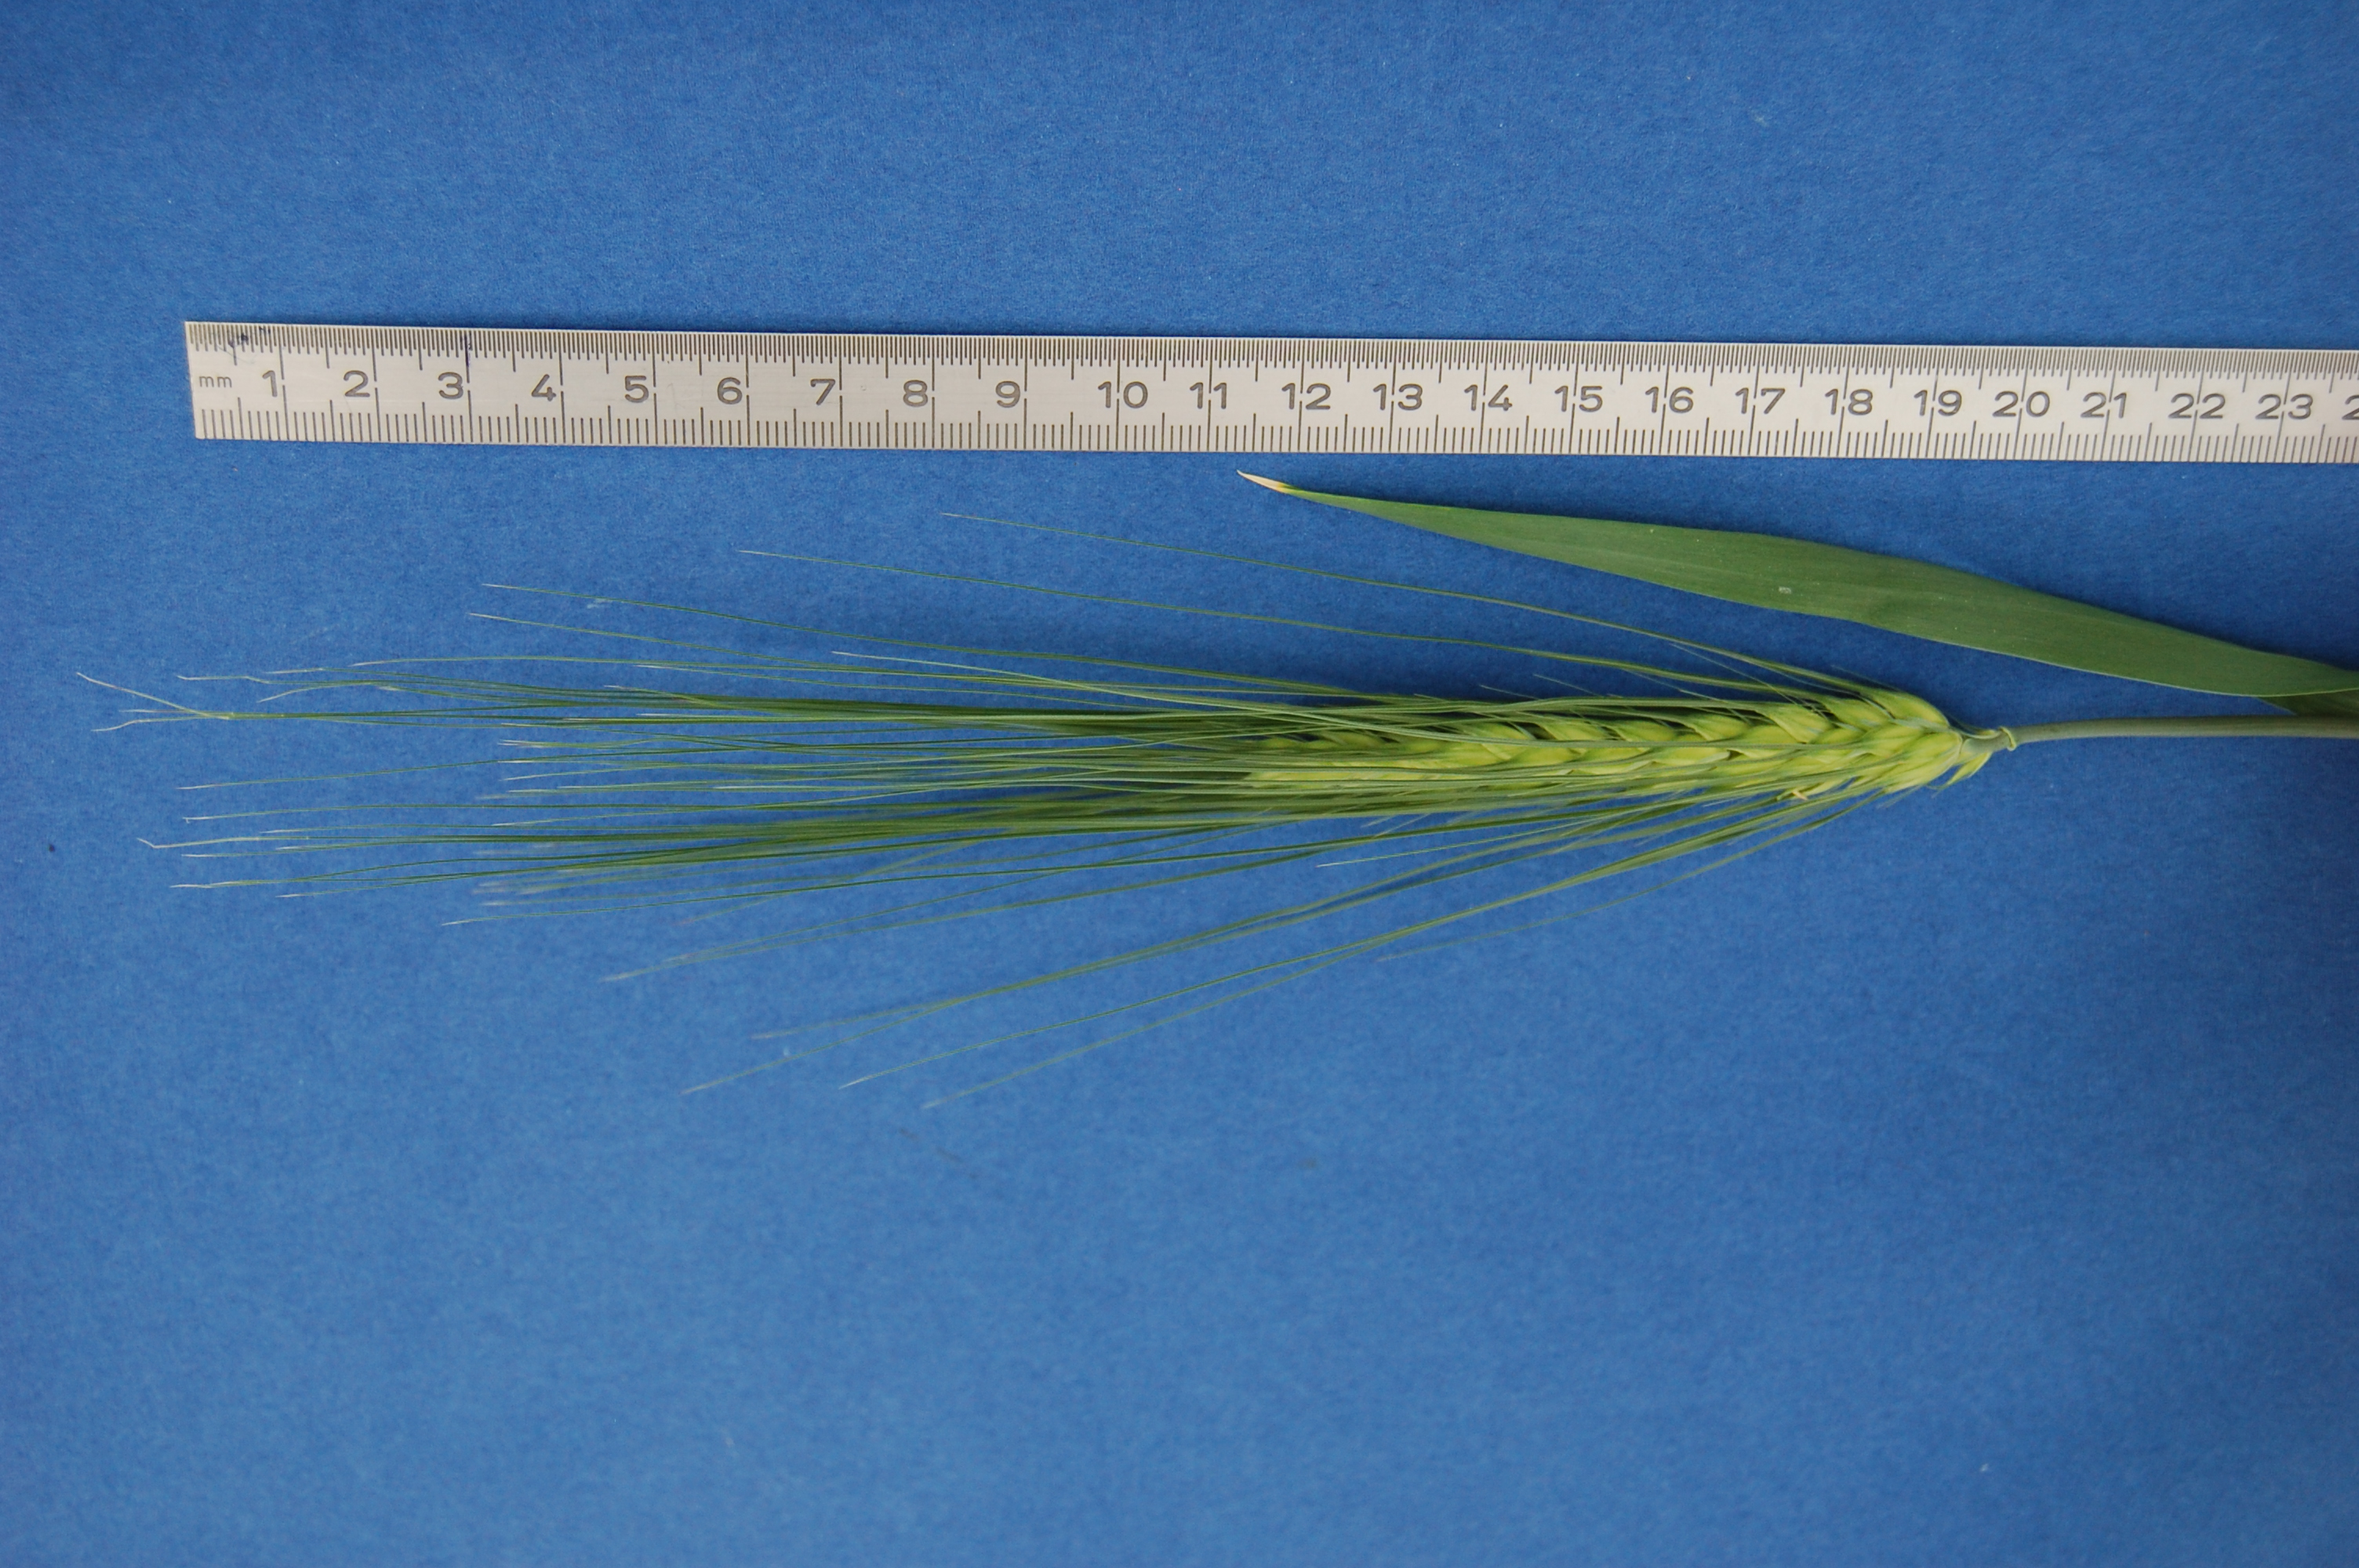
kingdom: Plantae
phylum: Tracheophyta
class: Liliopsida
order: Poales
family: Poaceae
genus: Hordeum
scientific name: Hordeum vulgare
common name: Common barley
